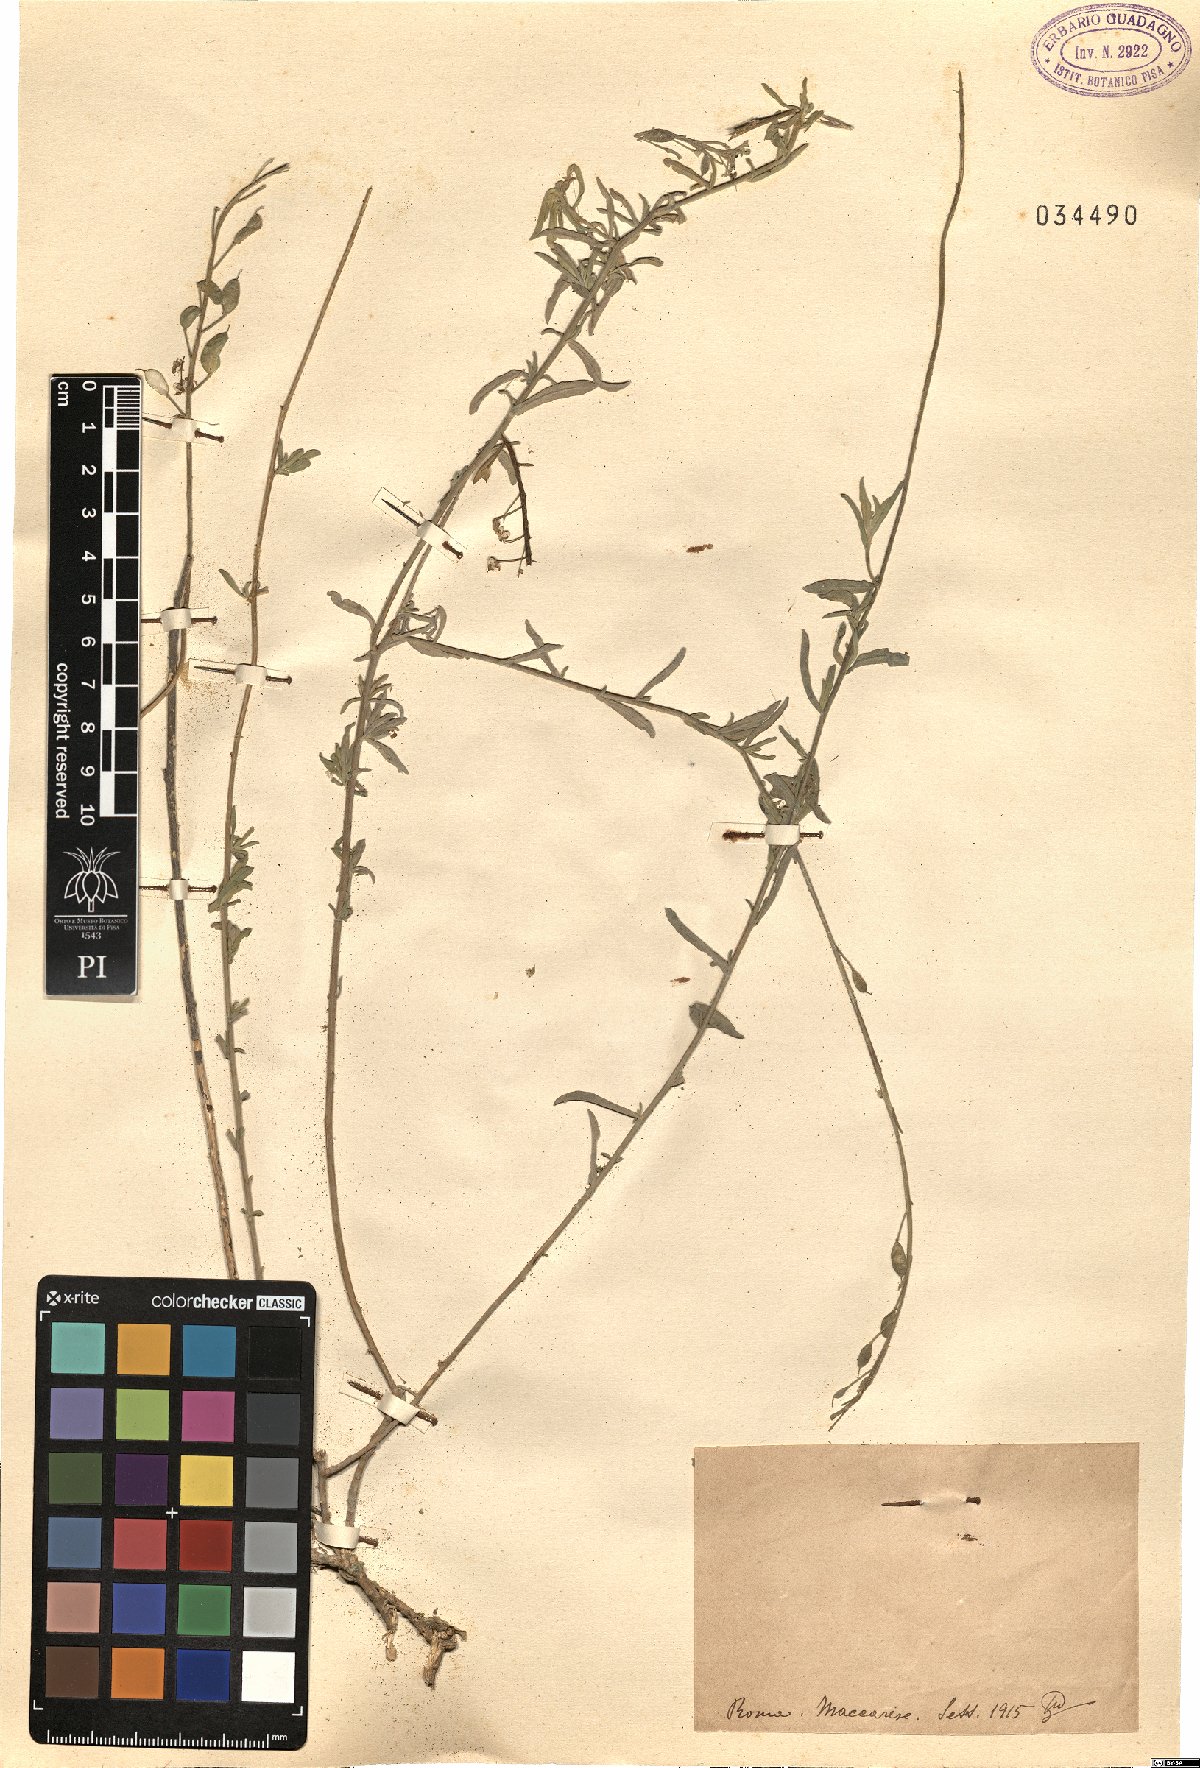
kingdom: Plantae
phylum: Tracheophyta
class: Magnoliopsida
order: Brassicales
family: Brassicaceae
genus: Alyssum
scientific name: Alyssum
